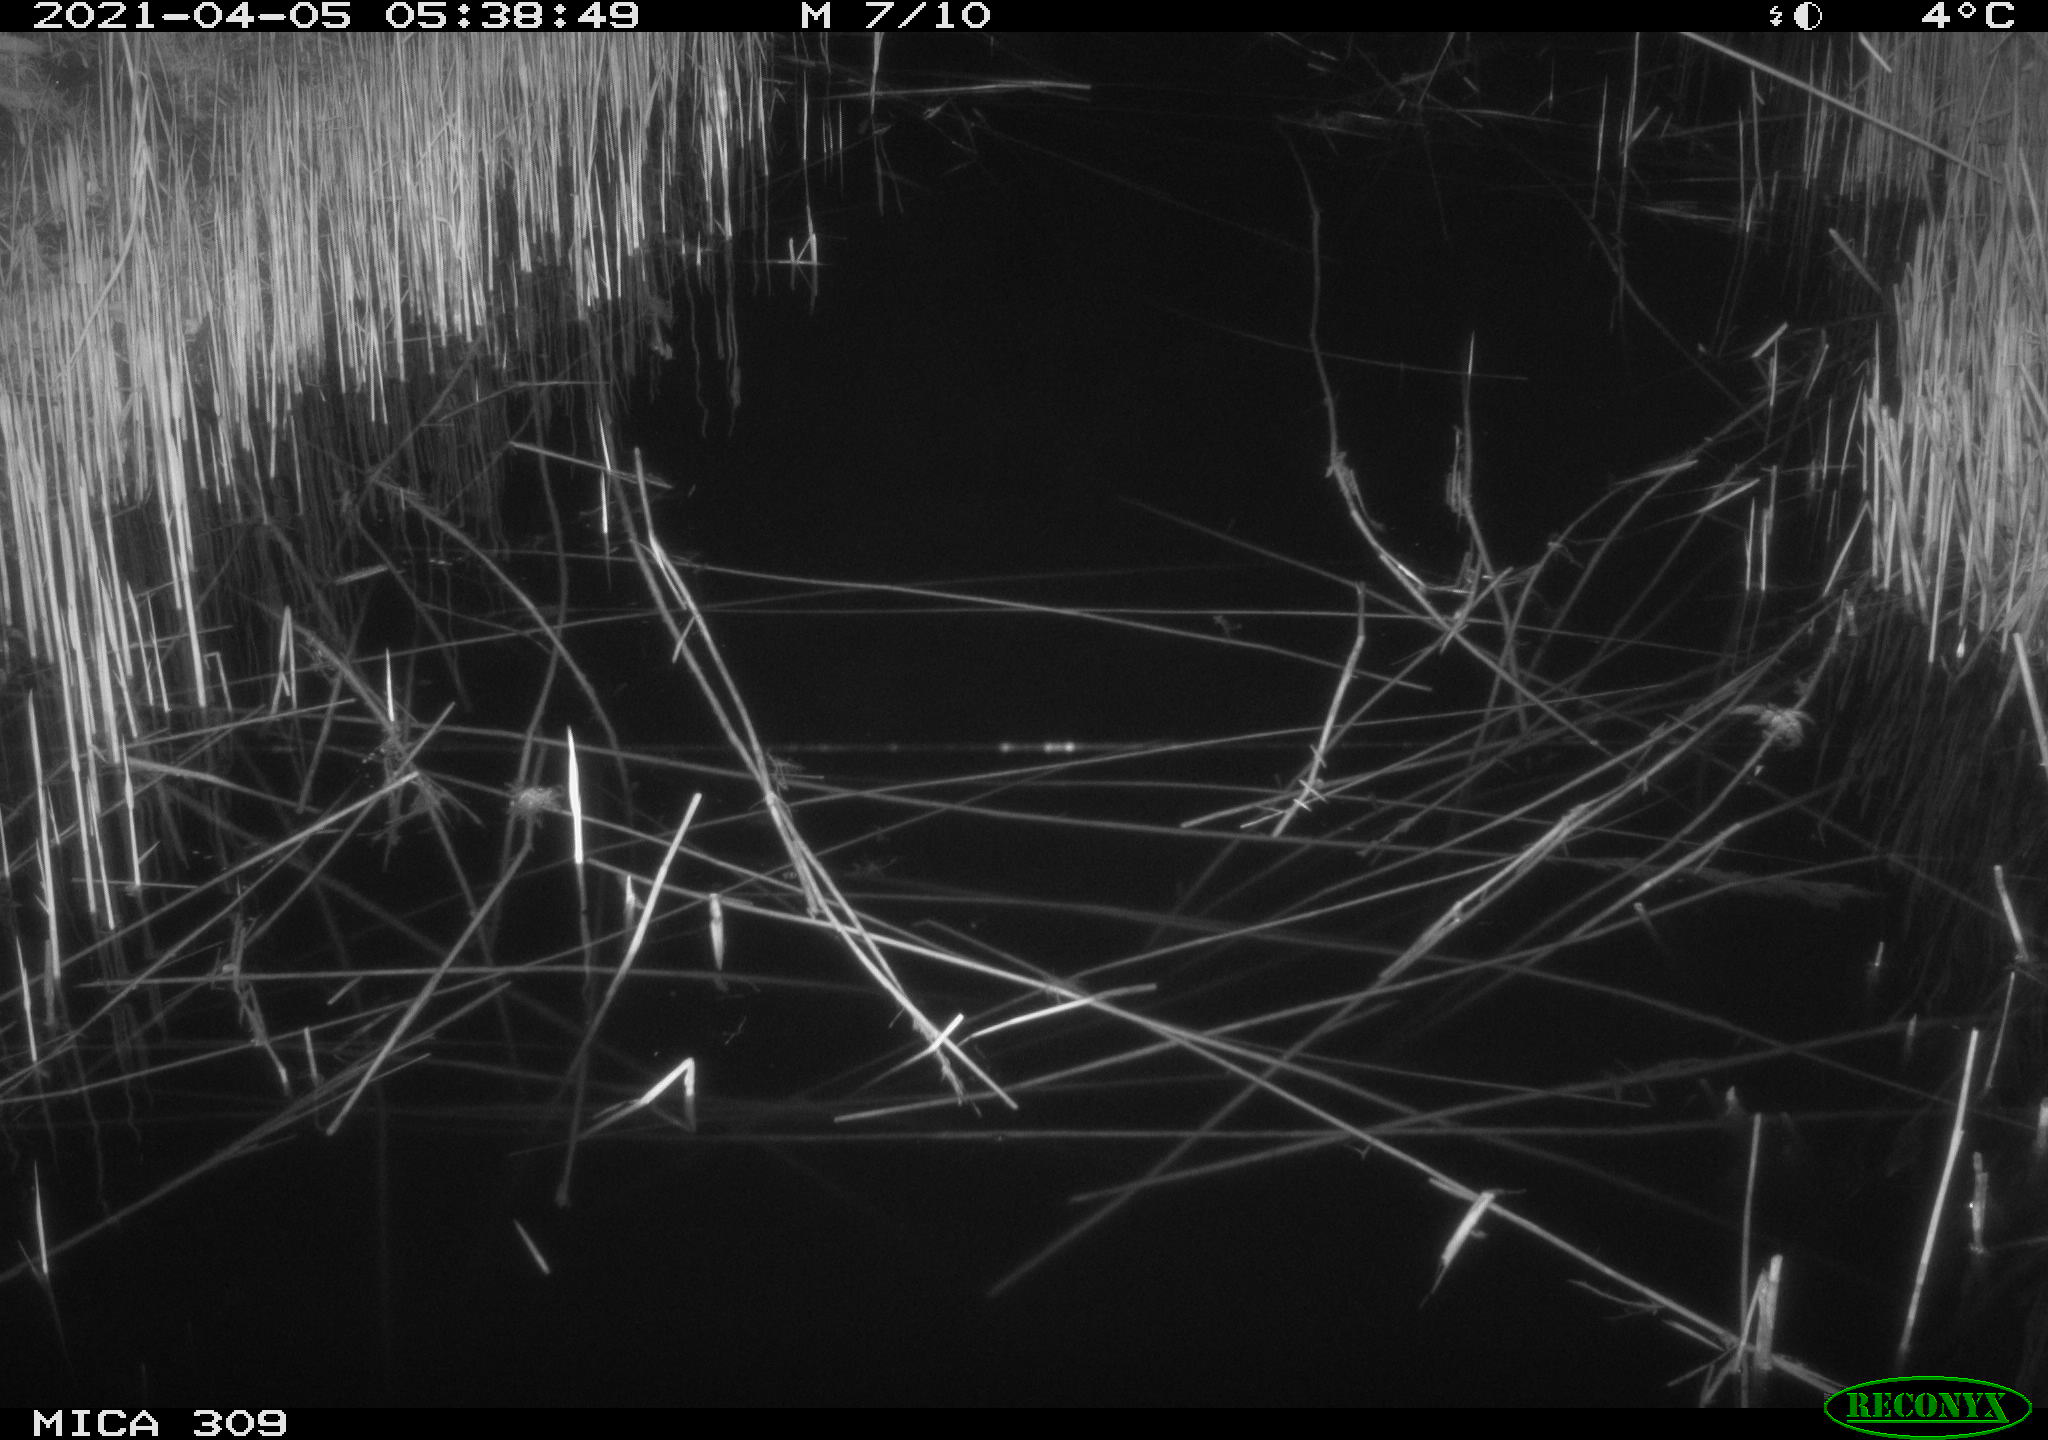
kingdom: Animalia
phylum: Chordata
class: Aves
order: Anseriformes
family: Anatidae
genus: Anas
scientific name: Anas platyrhynchos
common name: Mallard
